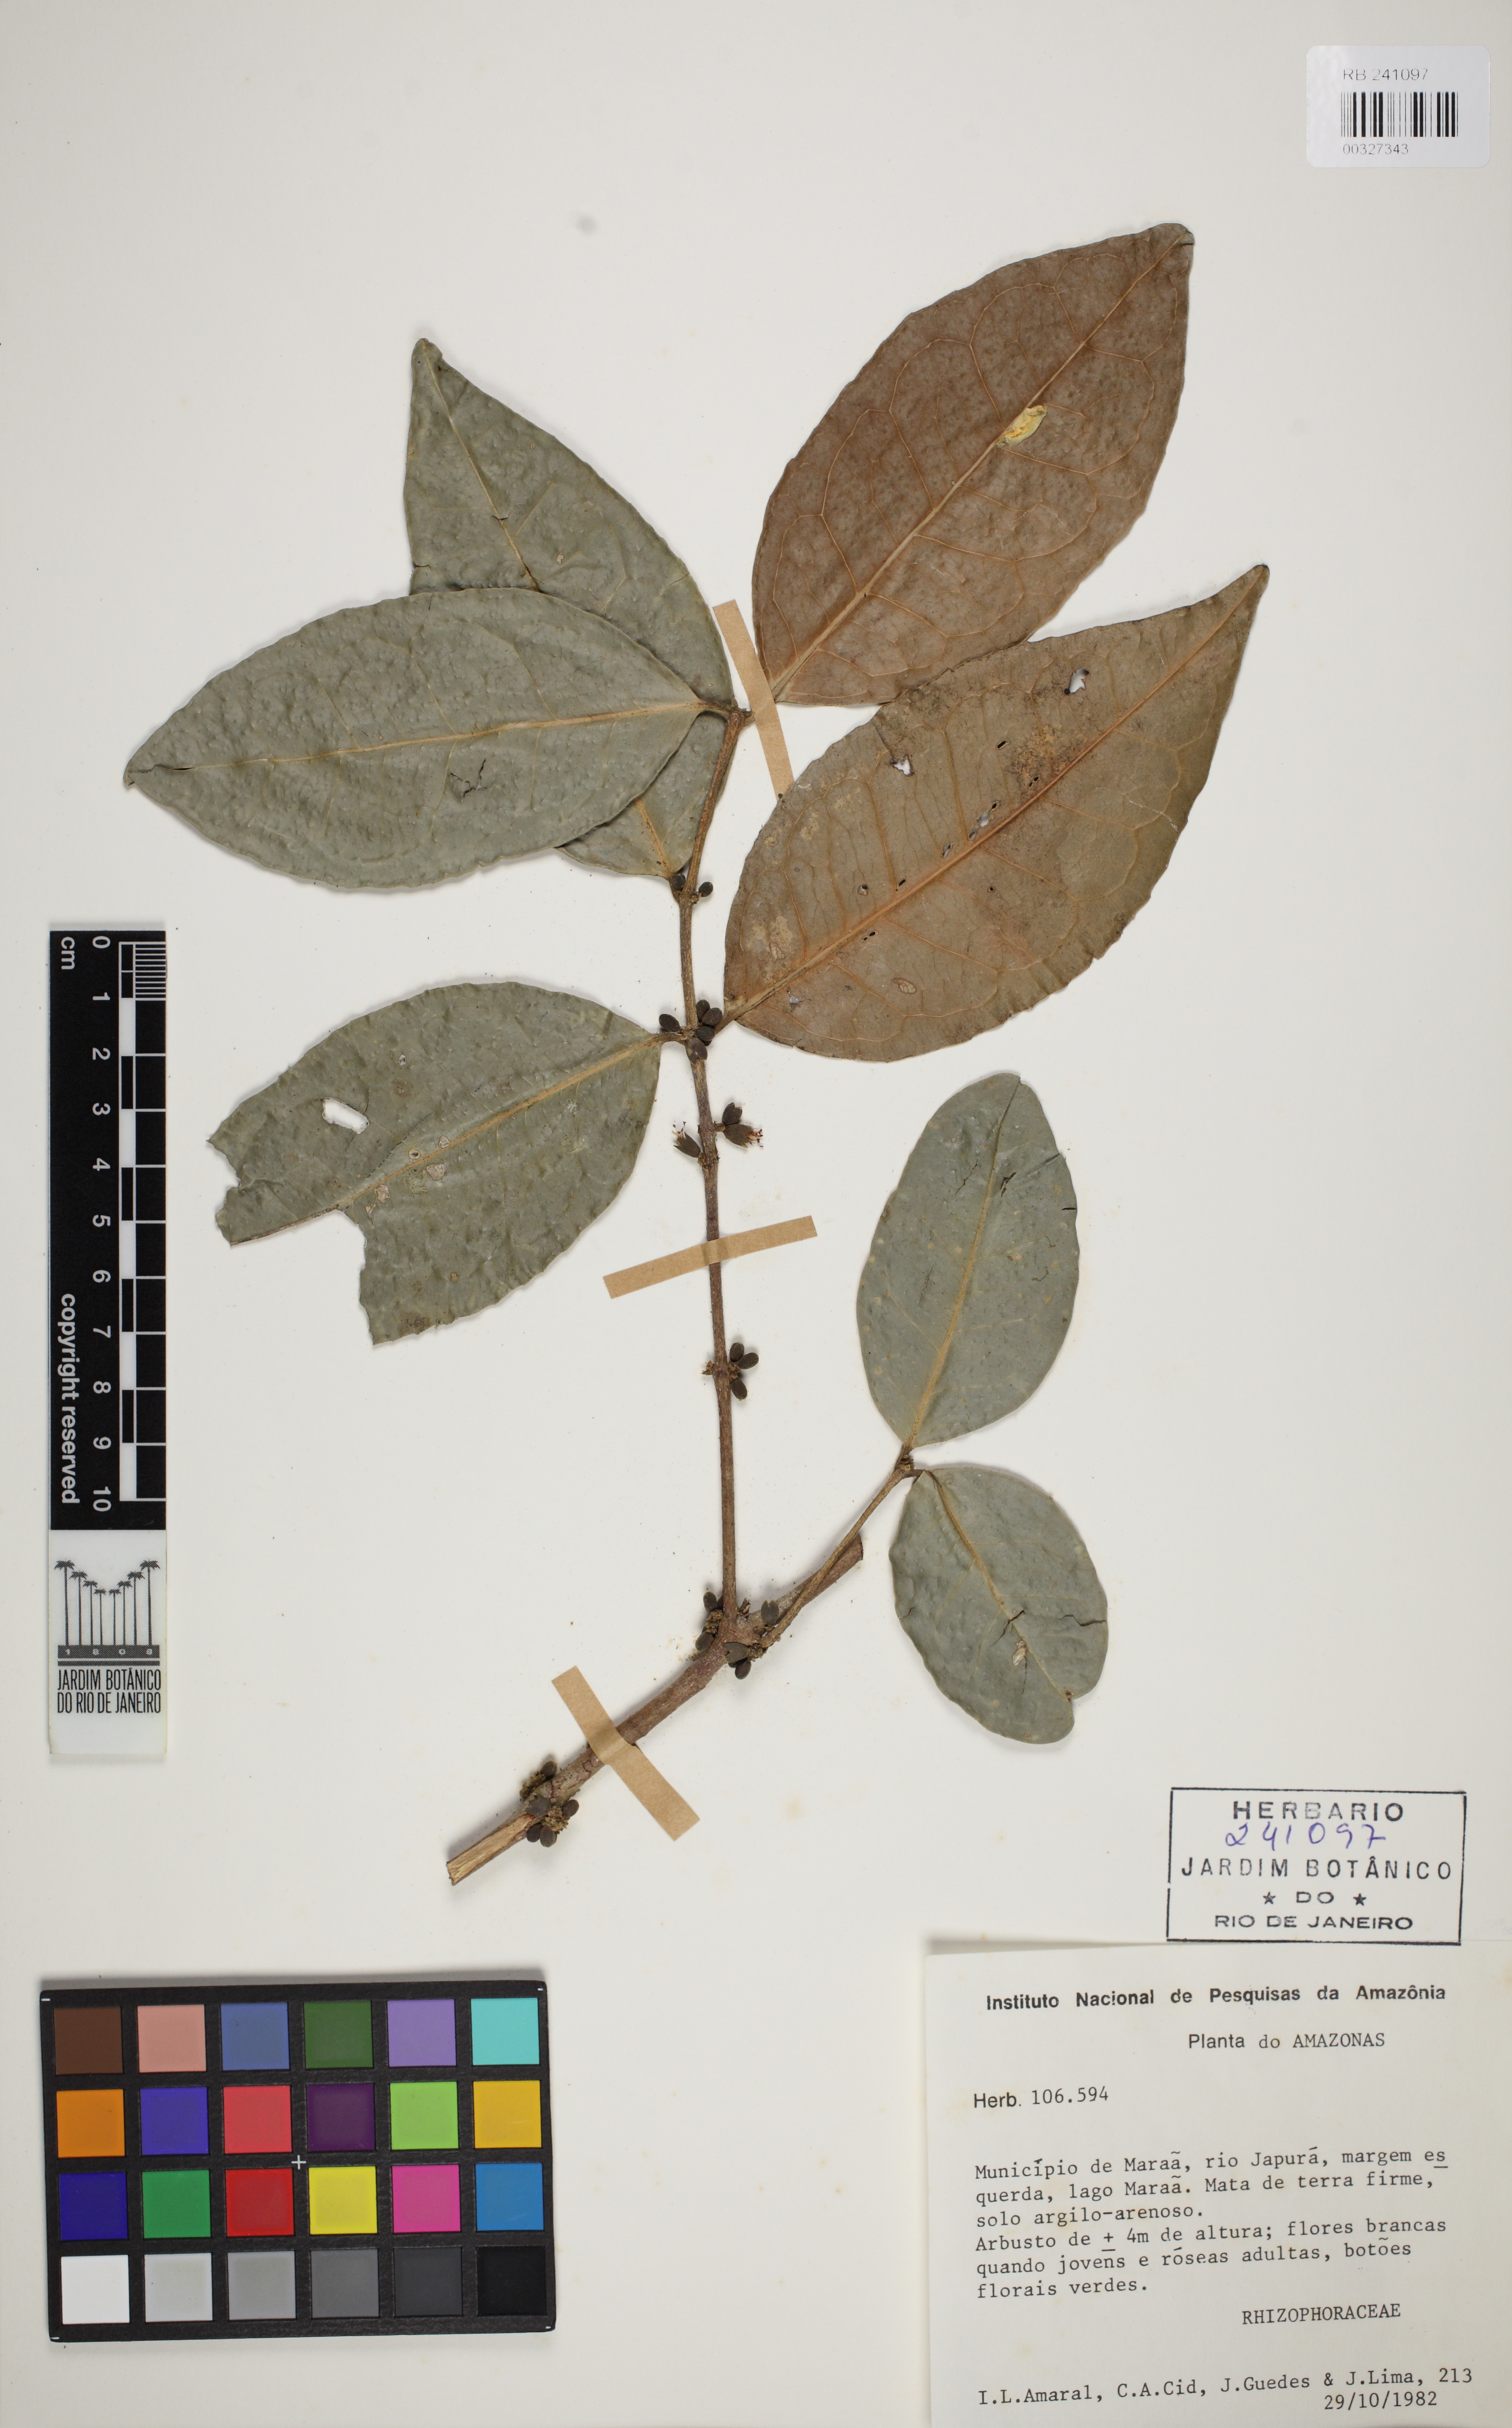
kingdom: Plantae
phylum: Tracheophyta
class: Magnoliopsida
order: Malpighiales
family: Rhizophoraceae
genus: Cassipourea
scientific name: Cassipourea guianensis
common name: Bastard waterwood
